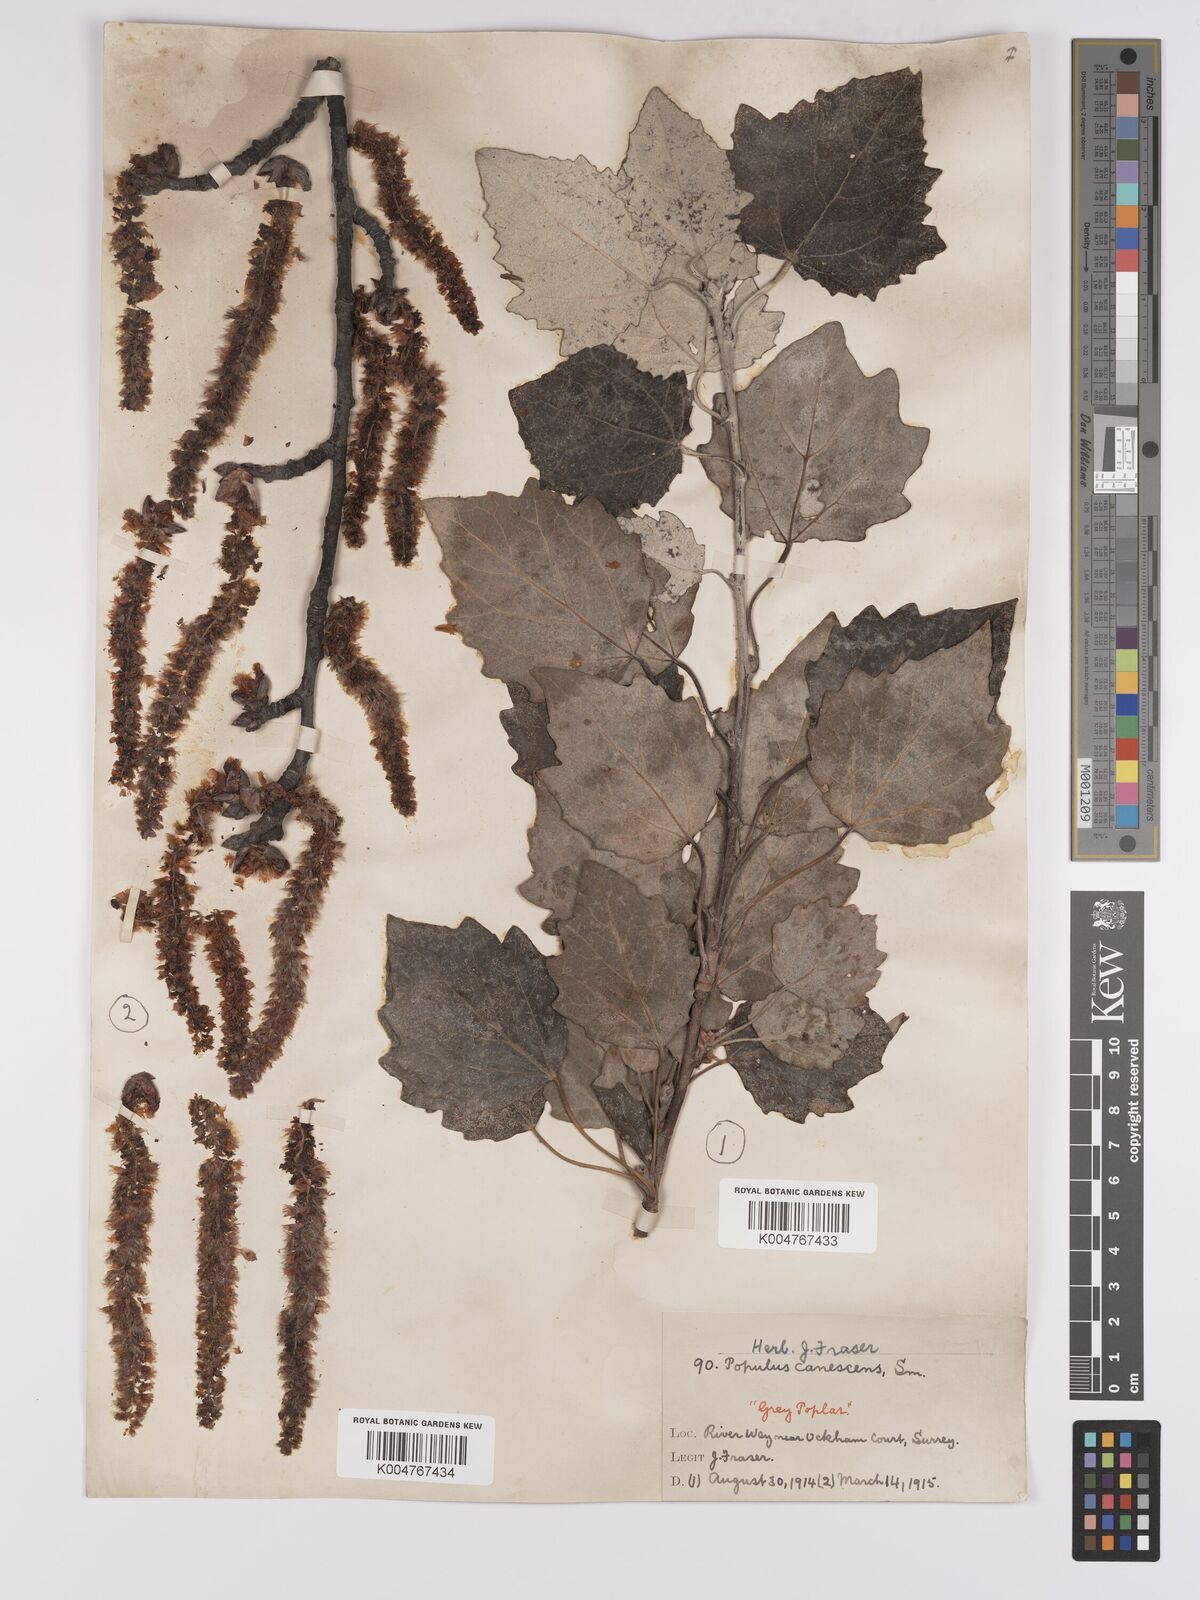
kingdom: Plantae
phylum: Tracheophyta
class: Magnoliopsida
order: Malpighiales
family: Salicaceae
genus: Populus
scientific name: Populus canescens
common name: Gray poplar
